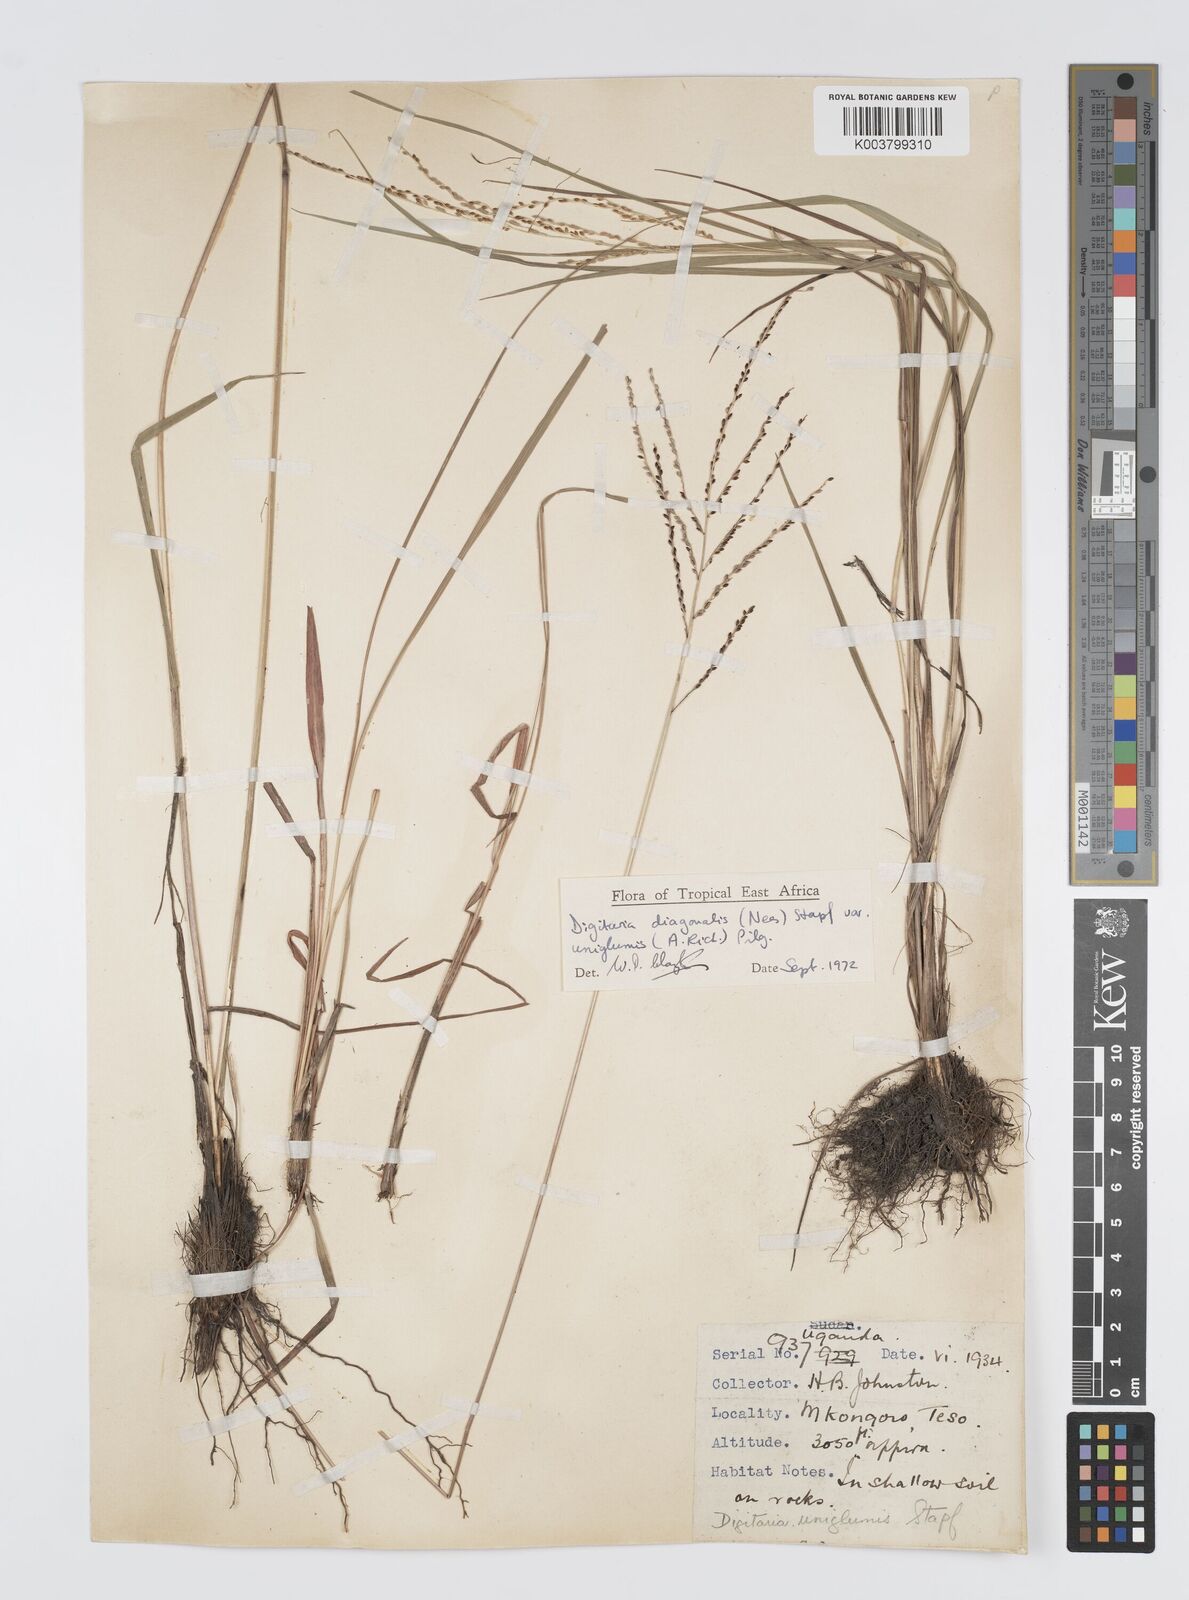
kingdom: Plantae
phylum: Tracheophyta
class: Liliopsida
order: Poales
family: Poaceae
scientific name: Poaceae
